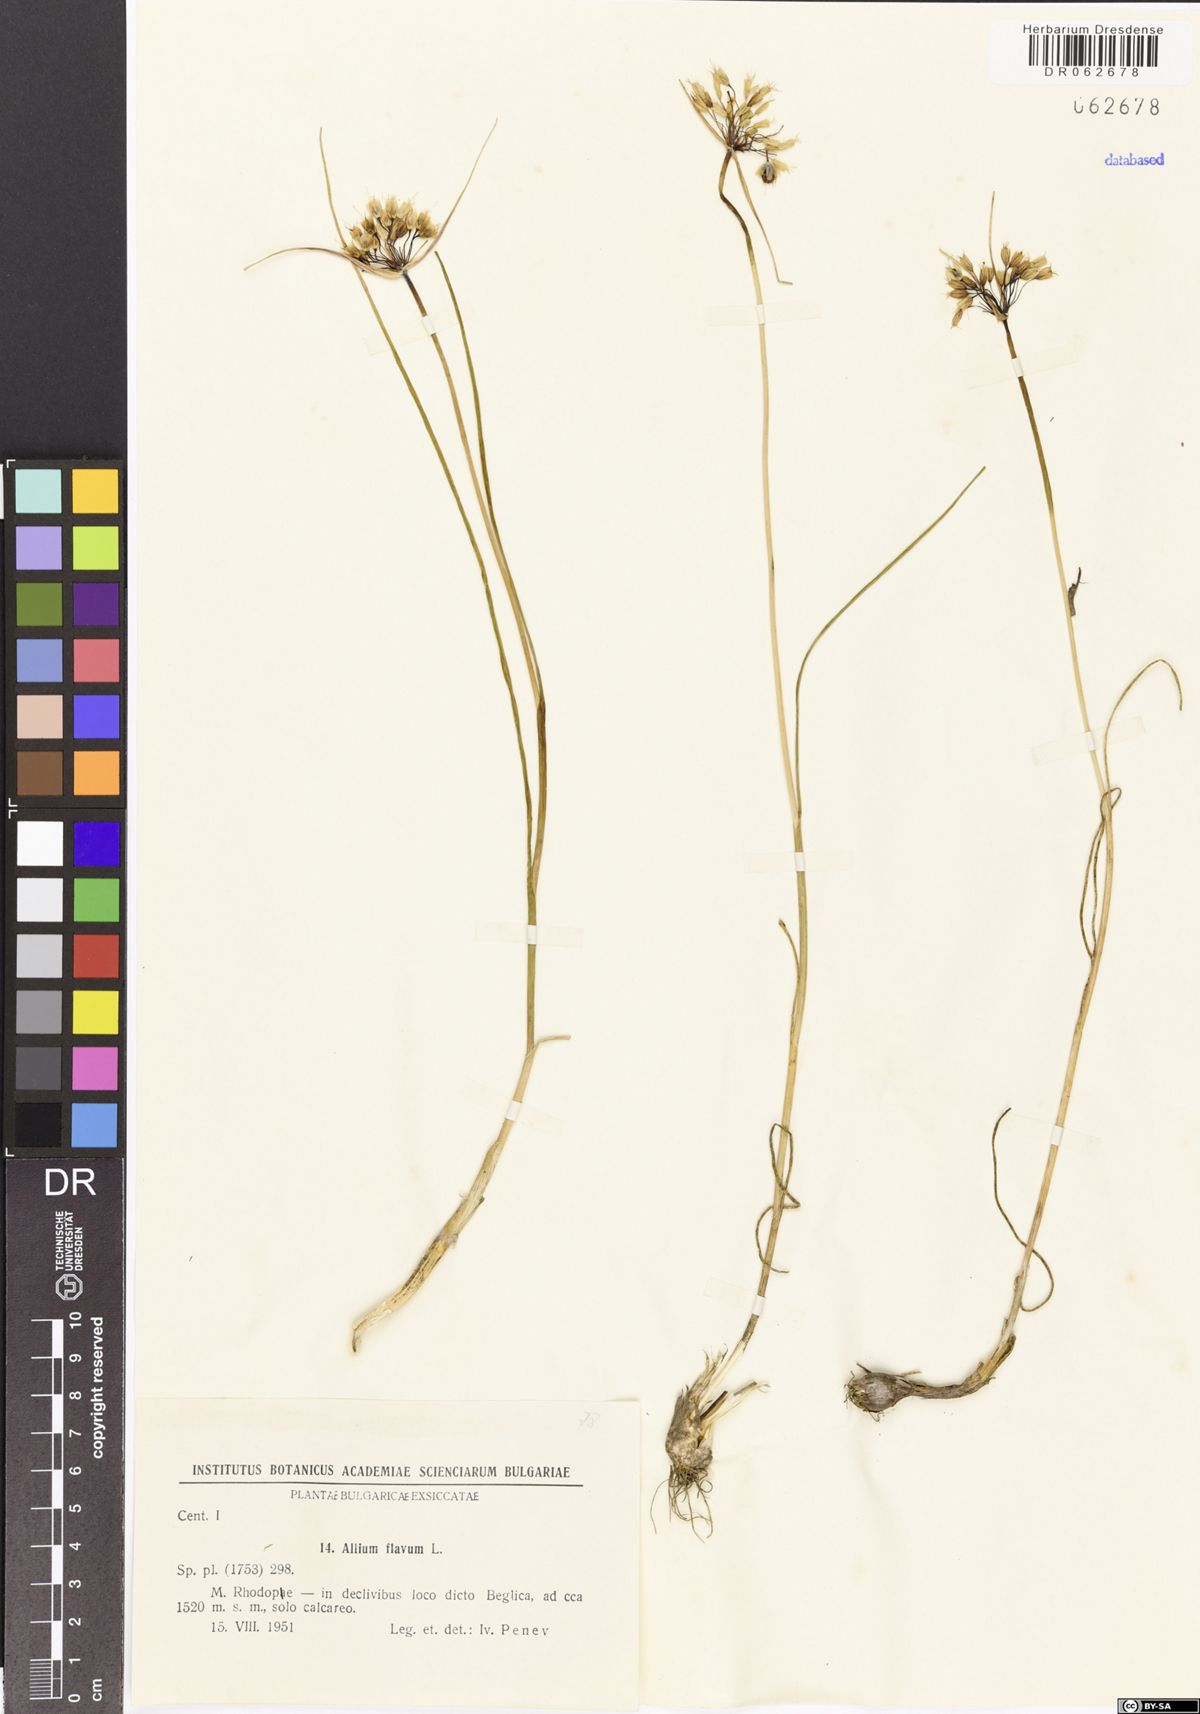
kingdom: Plantae
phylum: Tracheophyta
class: Liliopsida
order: Asparagales
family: Amaryllidaceae
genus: Allium
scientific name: Allium flavum
